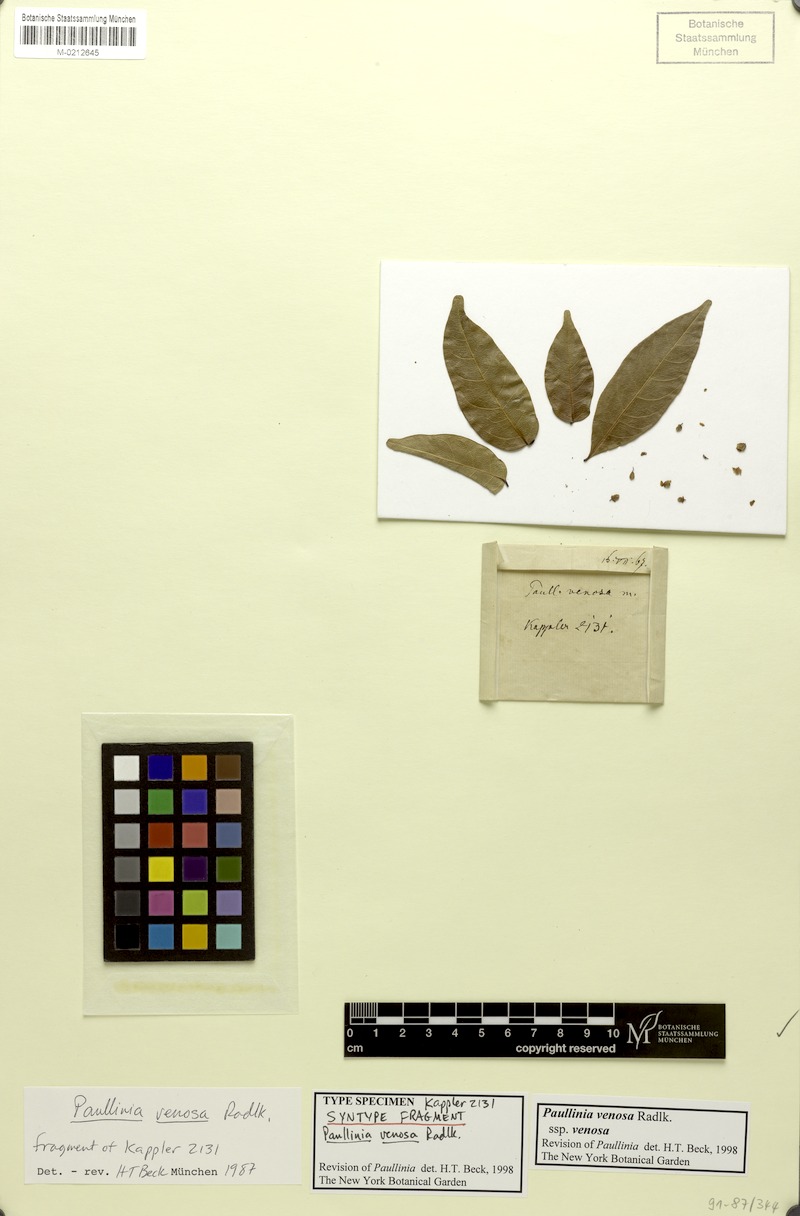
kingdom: Plantae
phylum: Tracheophyta
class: Magnoliopsida
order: Sapindales
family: Sapindaceae
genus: Paullinia
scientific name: Paullinia venosa
